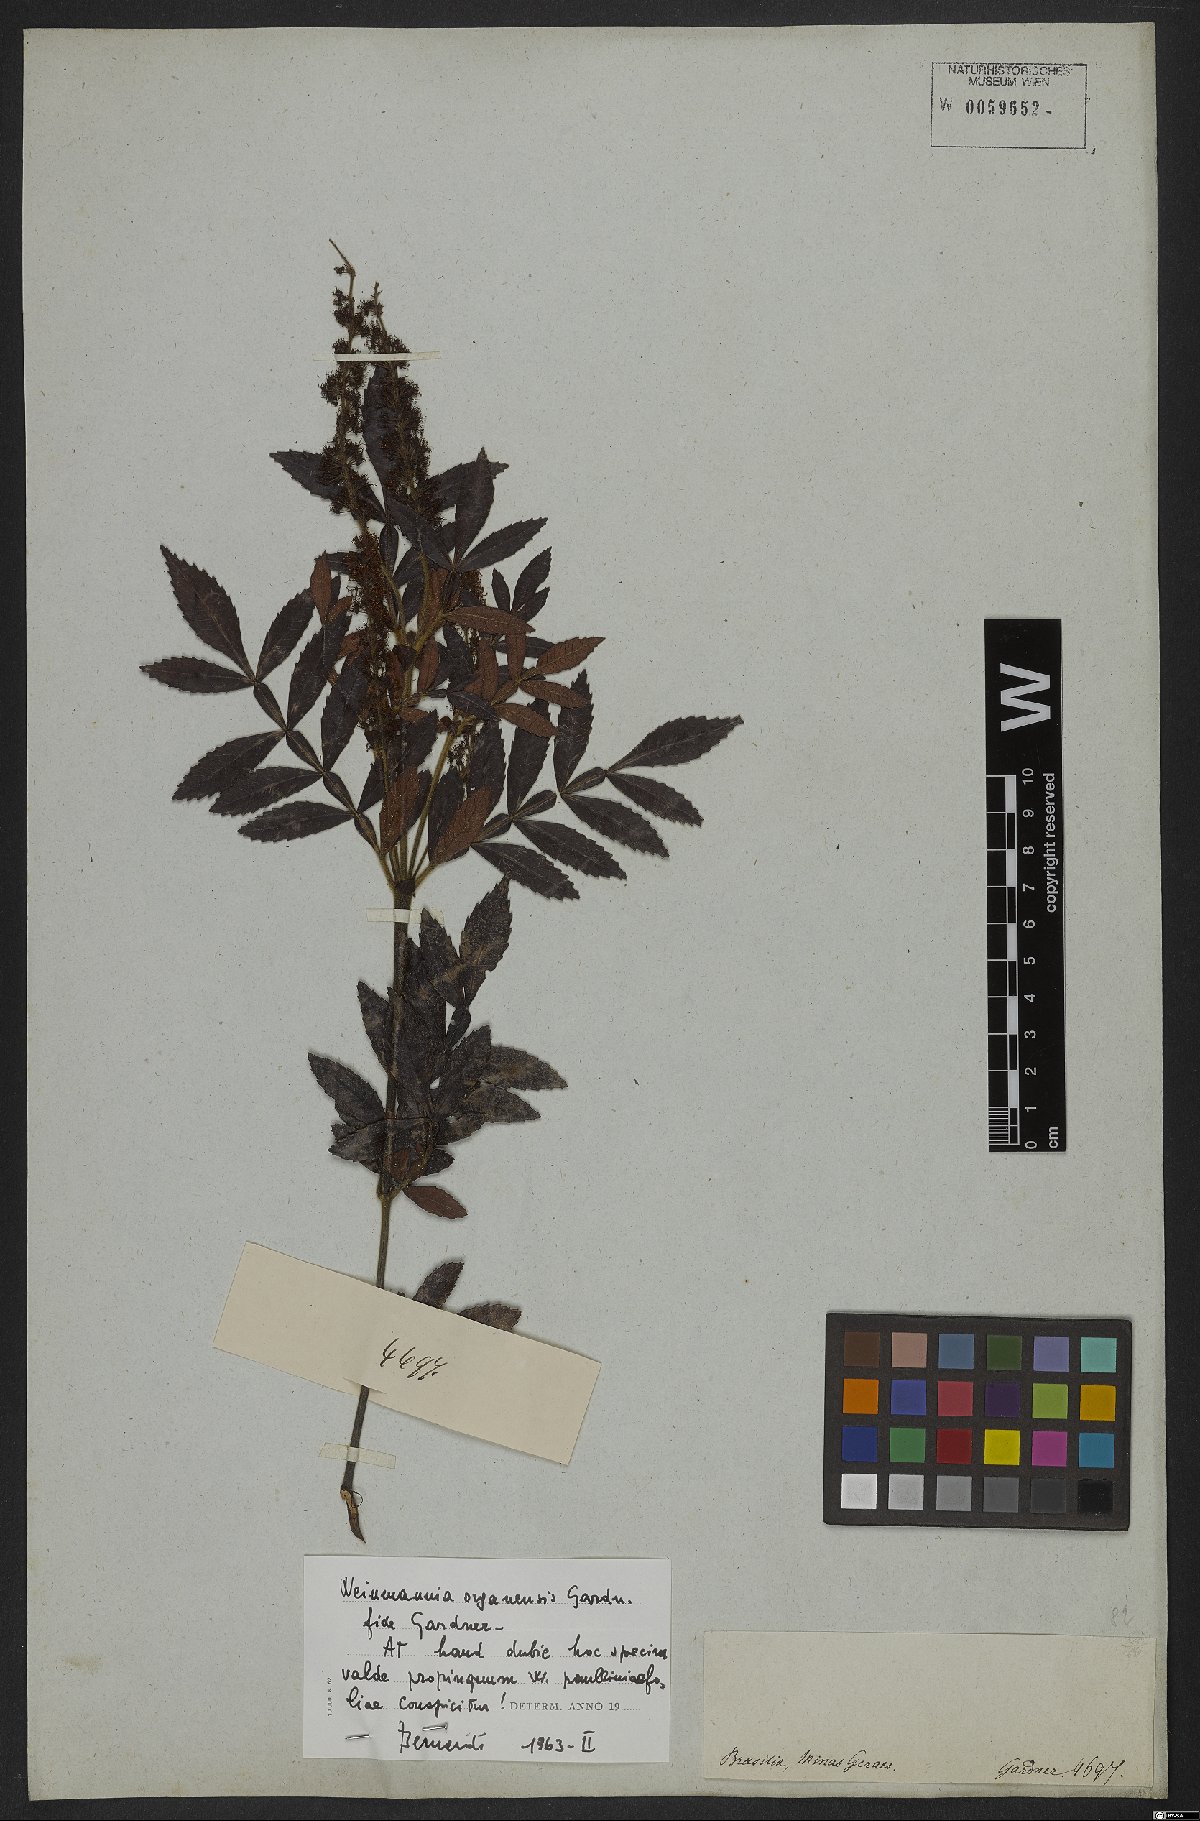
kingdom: Plantae
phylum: Tracheophyta
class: Magnoliopsida
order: Oxalidales
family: Cunoniaceae
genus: Weinmannia
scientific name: Weinmannia organensis
